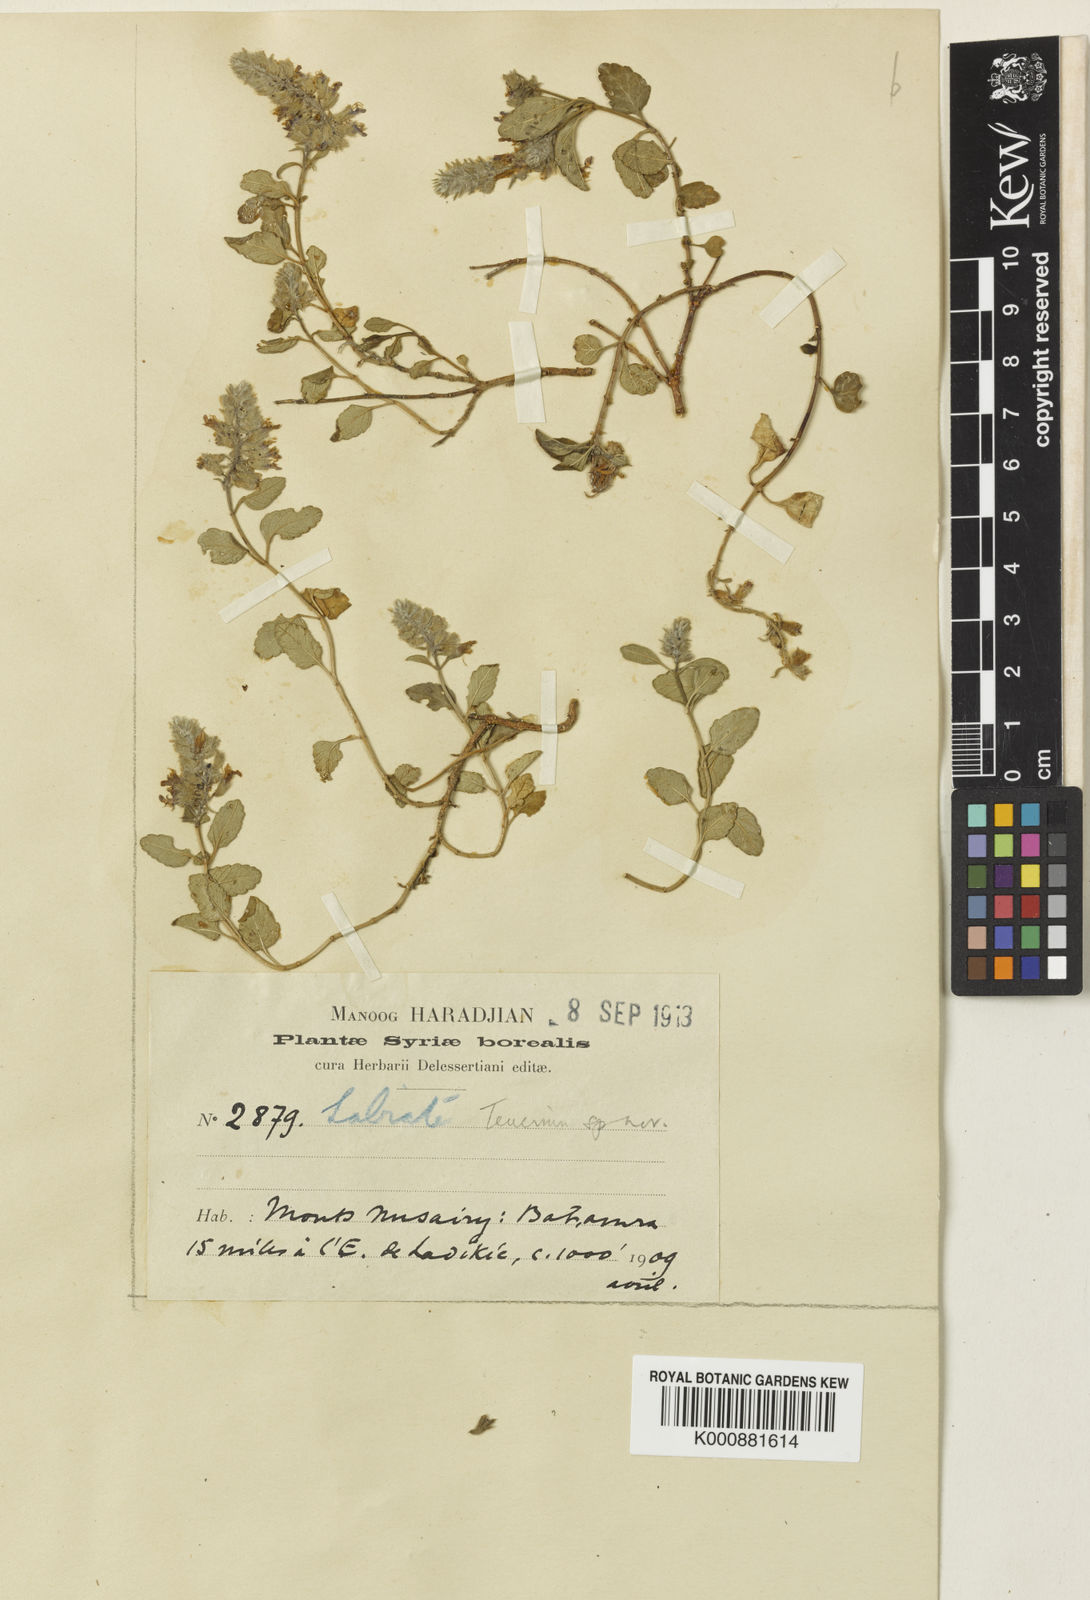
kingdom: Plantae
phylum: Tracheophyta
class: Magnoliopsida
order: Lamiales
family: Lamiaceae
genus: Teucrium
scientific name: Teucrium heterotrichum
